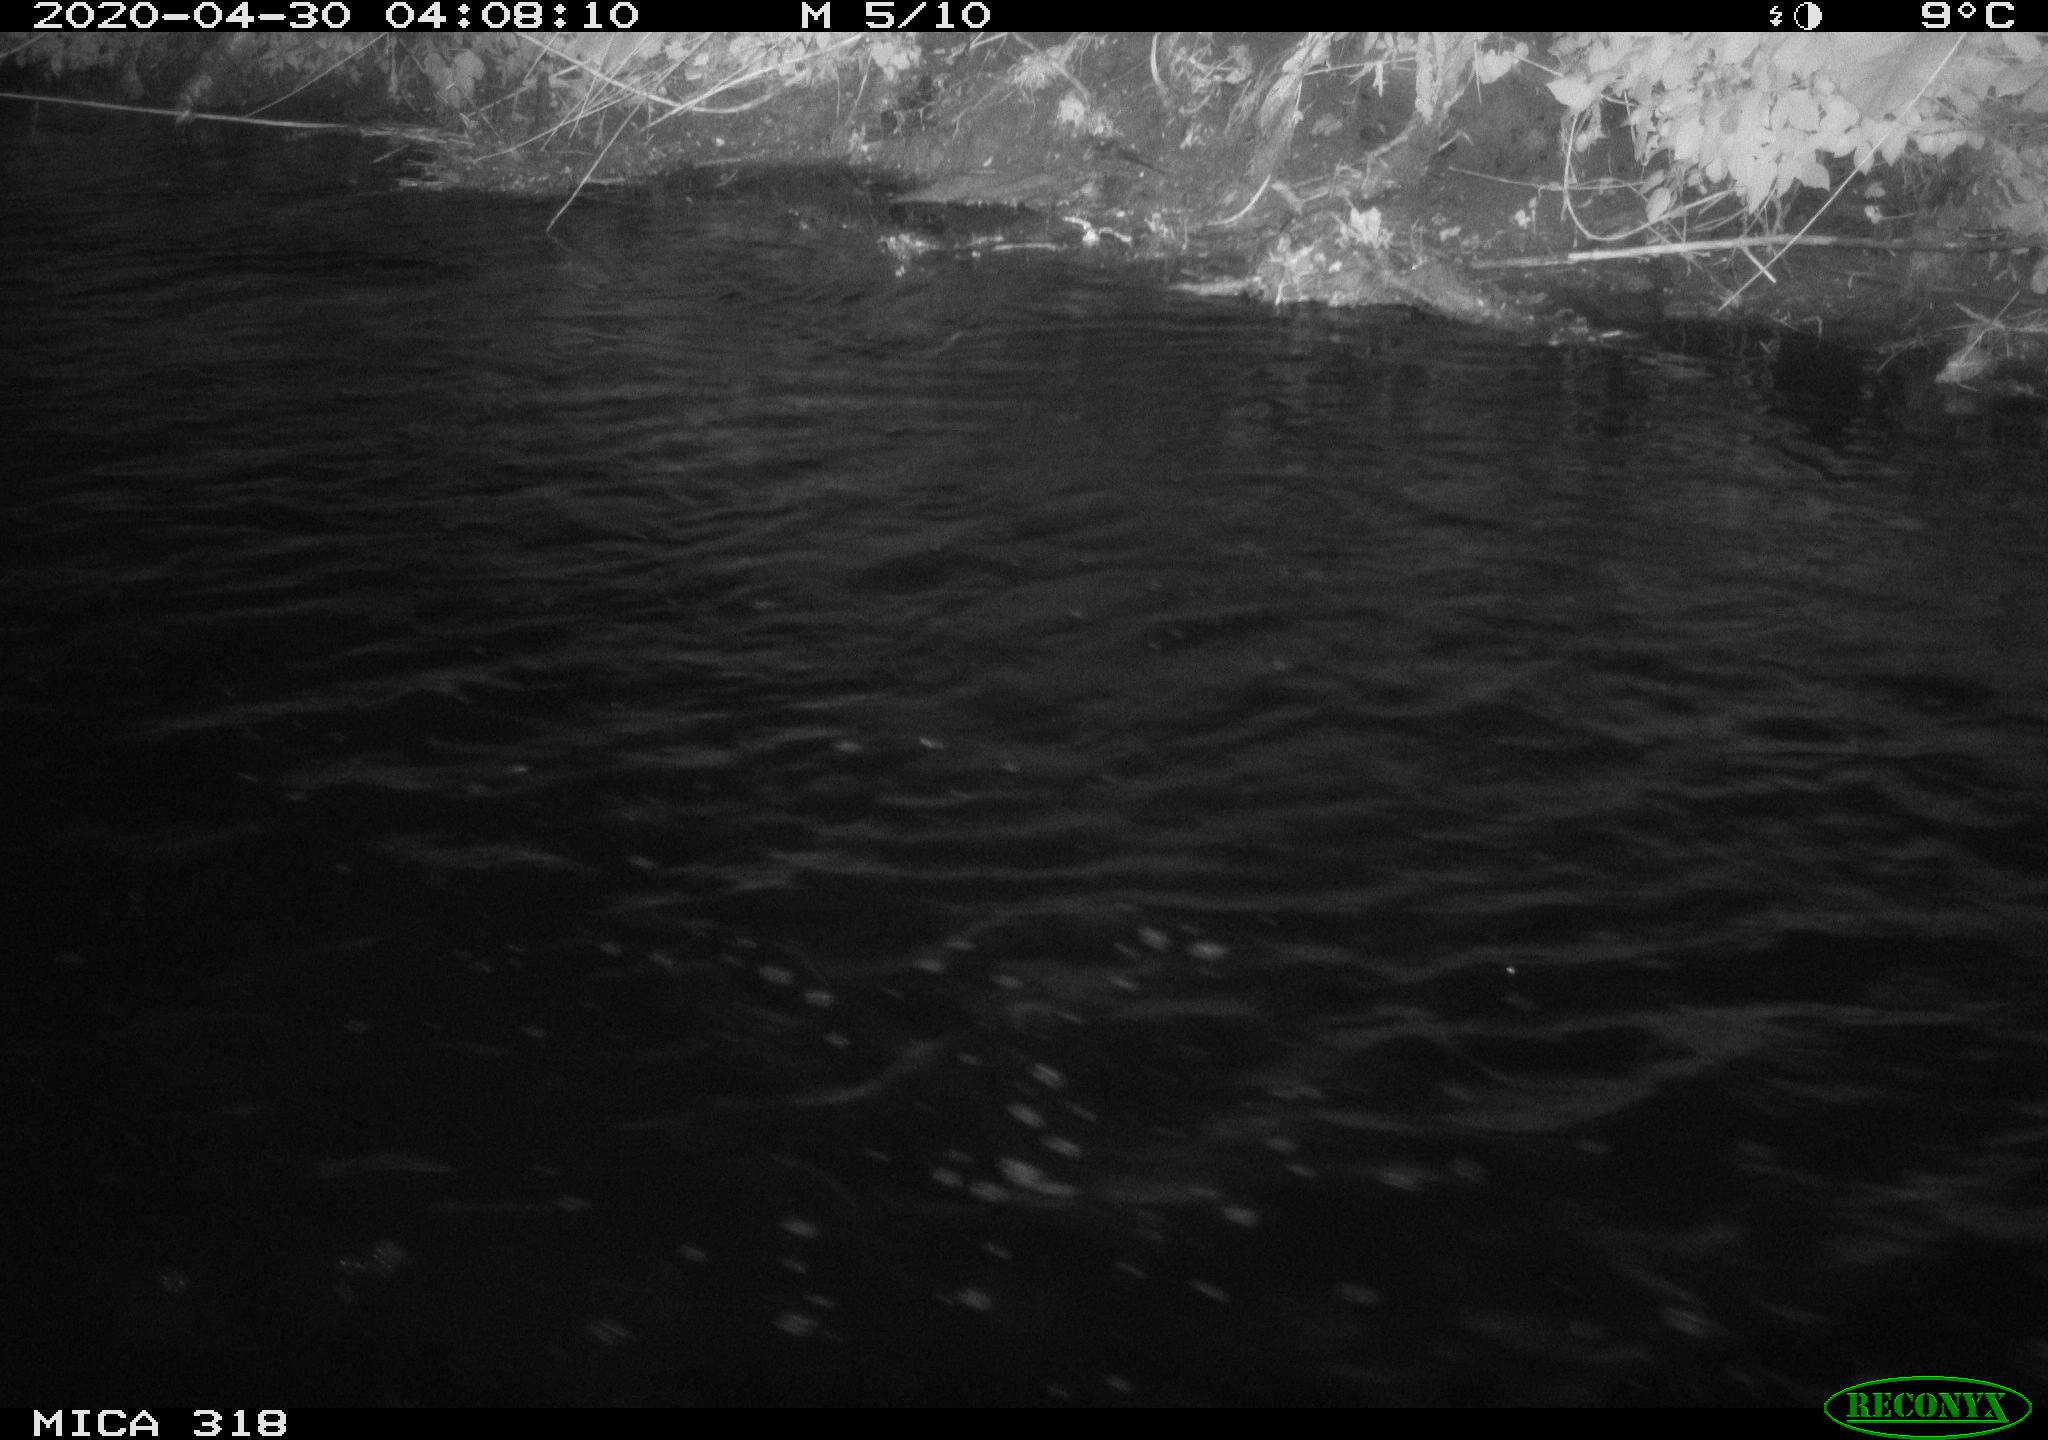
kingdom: Animalia
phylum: Chordata
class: Aves
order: Pelecaniformes
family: Ardeidae
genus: Ardea
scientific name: Ardea cinerea
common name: Grey heron
